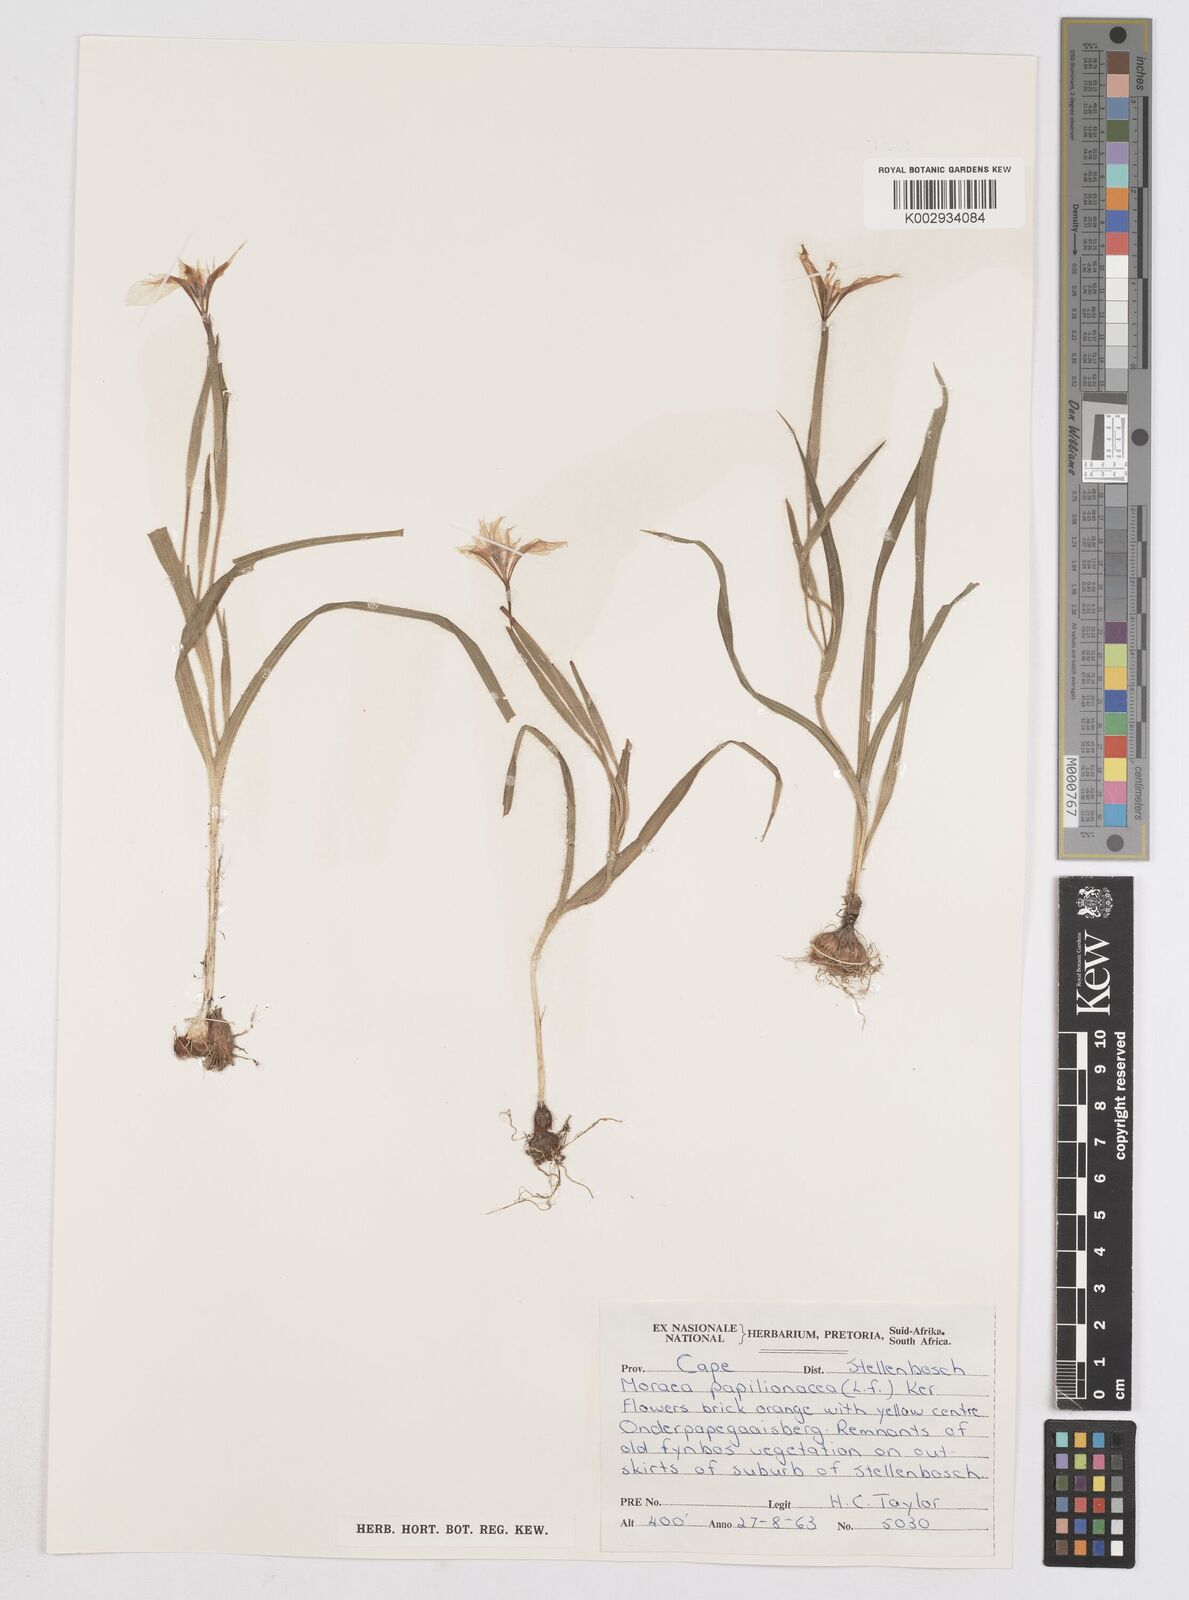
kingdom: Plantae
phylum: Tracheophyta
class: Liliopsida
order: Asparagales
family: Iridaceae
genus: Moraea
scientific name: Moraea papilionacea
